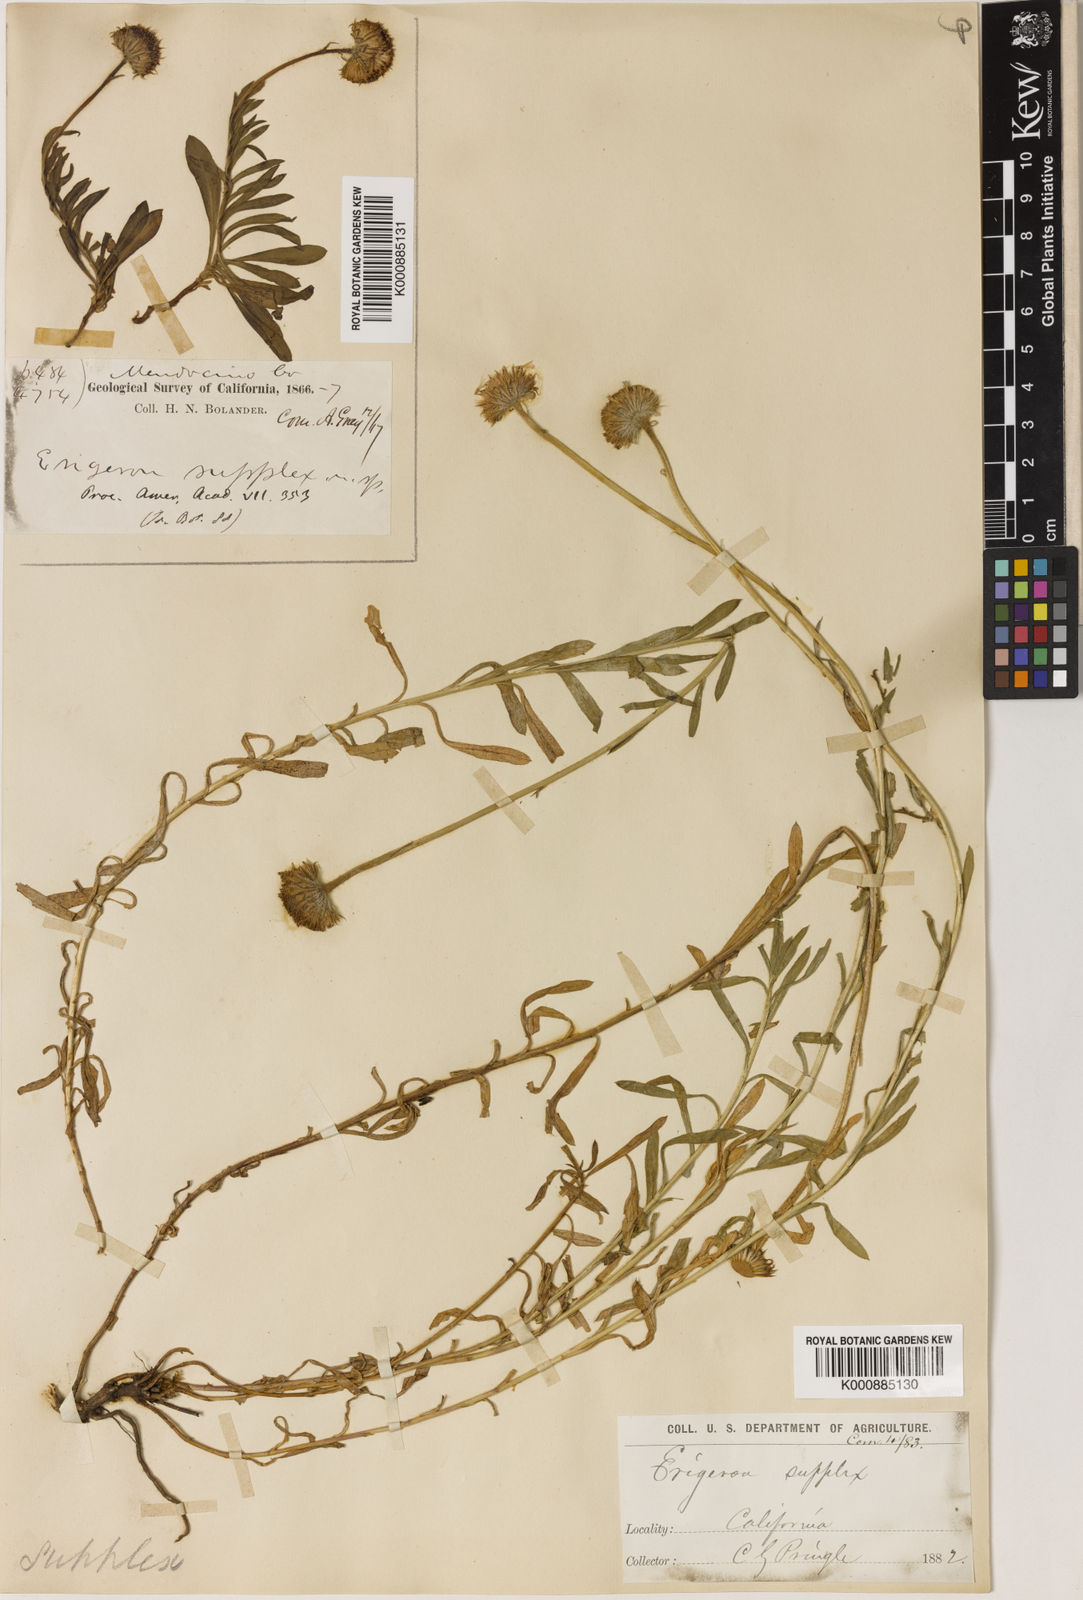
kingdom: Plantae
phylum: Tracheophyta
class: Magnoliopsida
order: Asterales
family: Asteraceae
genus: Erigeron
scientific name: Erigeron
